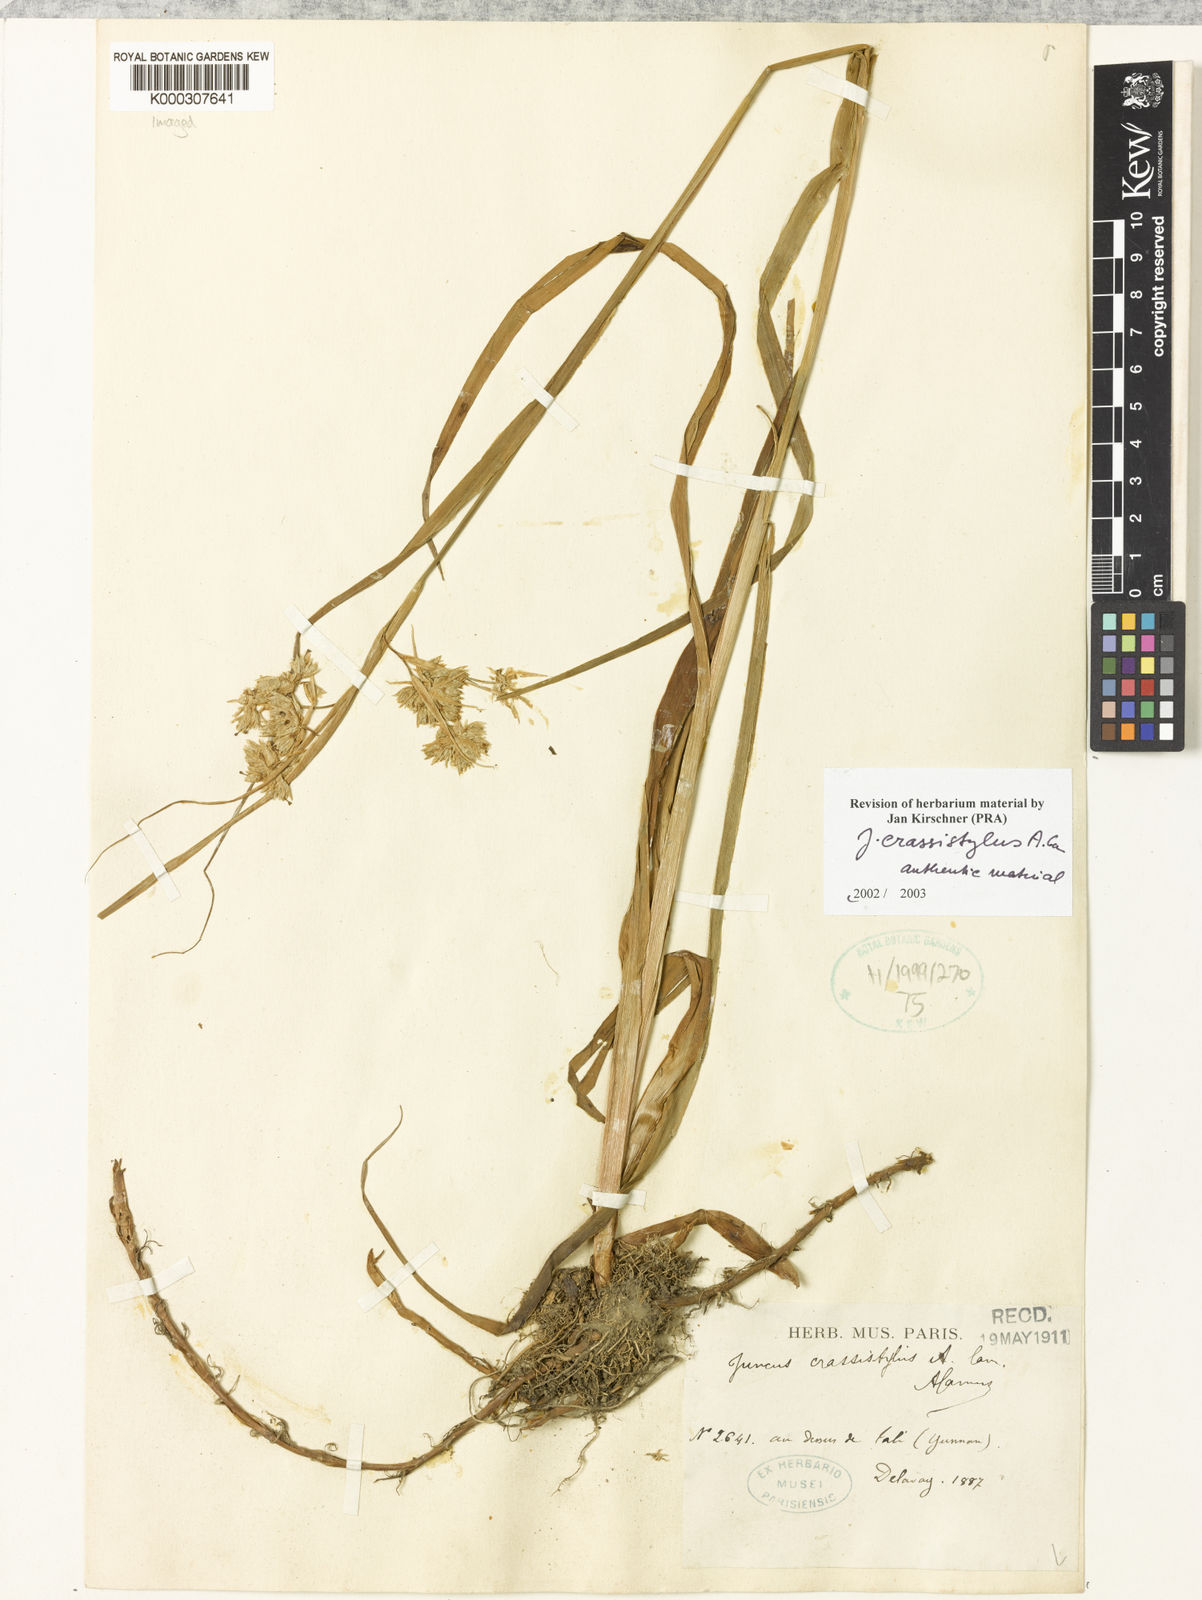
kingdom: Plantae
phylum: Tracheophyta
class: Liliopsida
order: Poales
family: Juncaceae
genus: Juncus
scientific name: Juncus crassistylus
